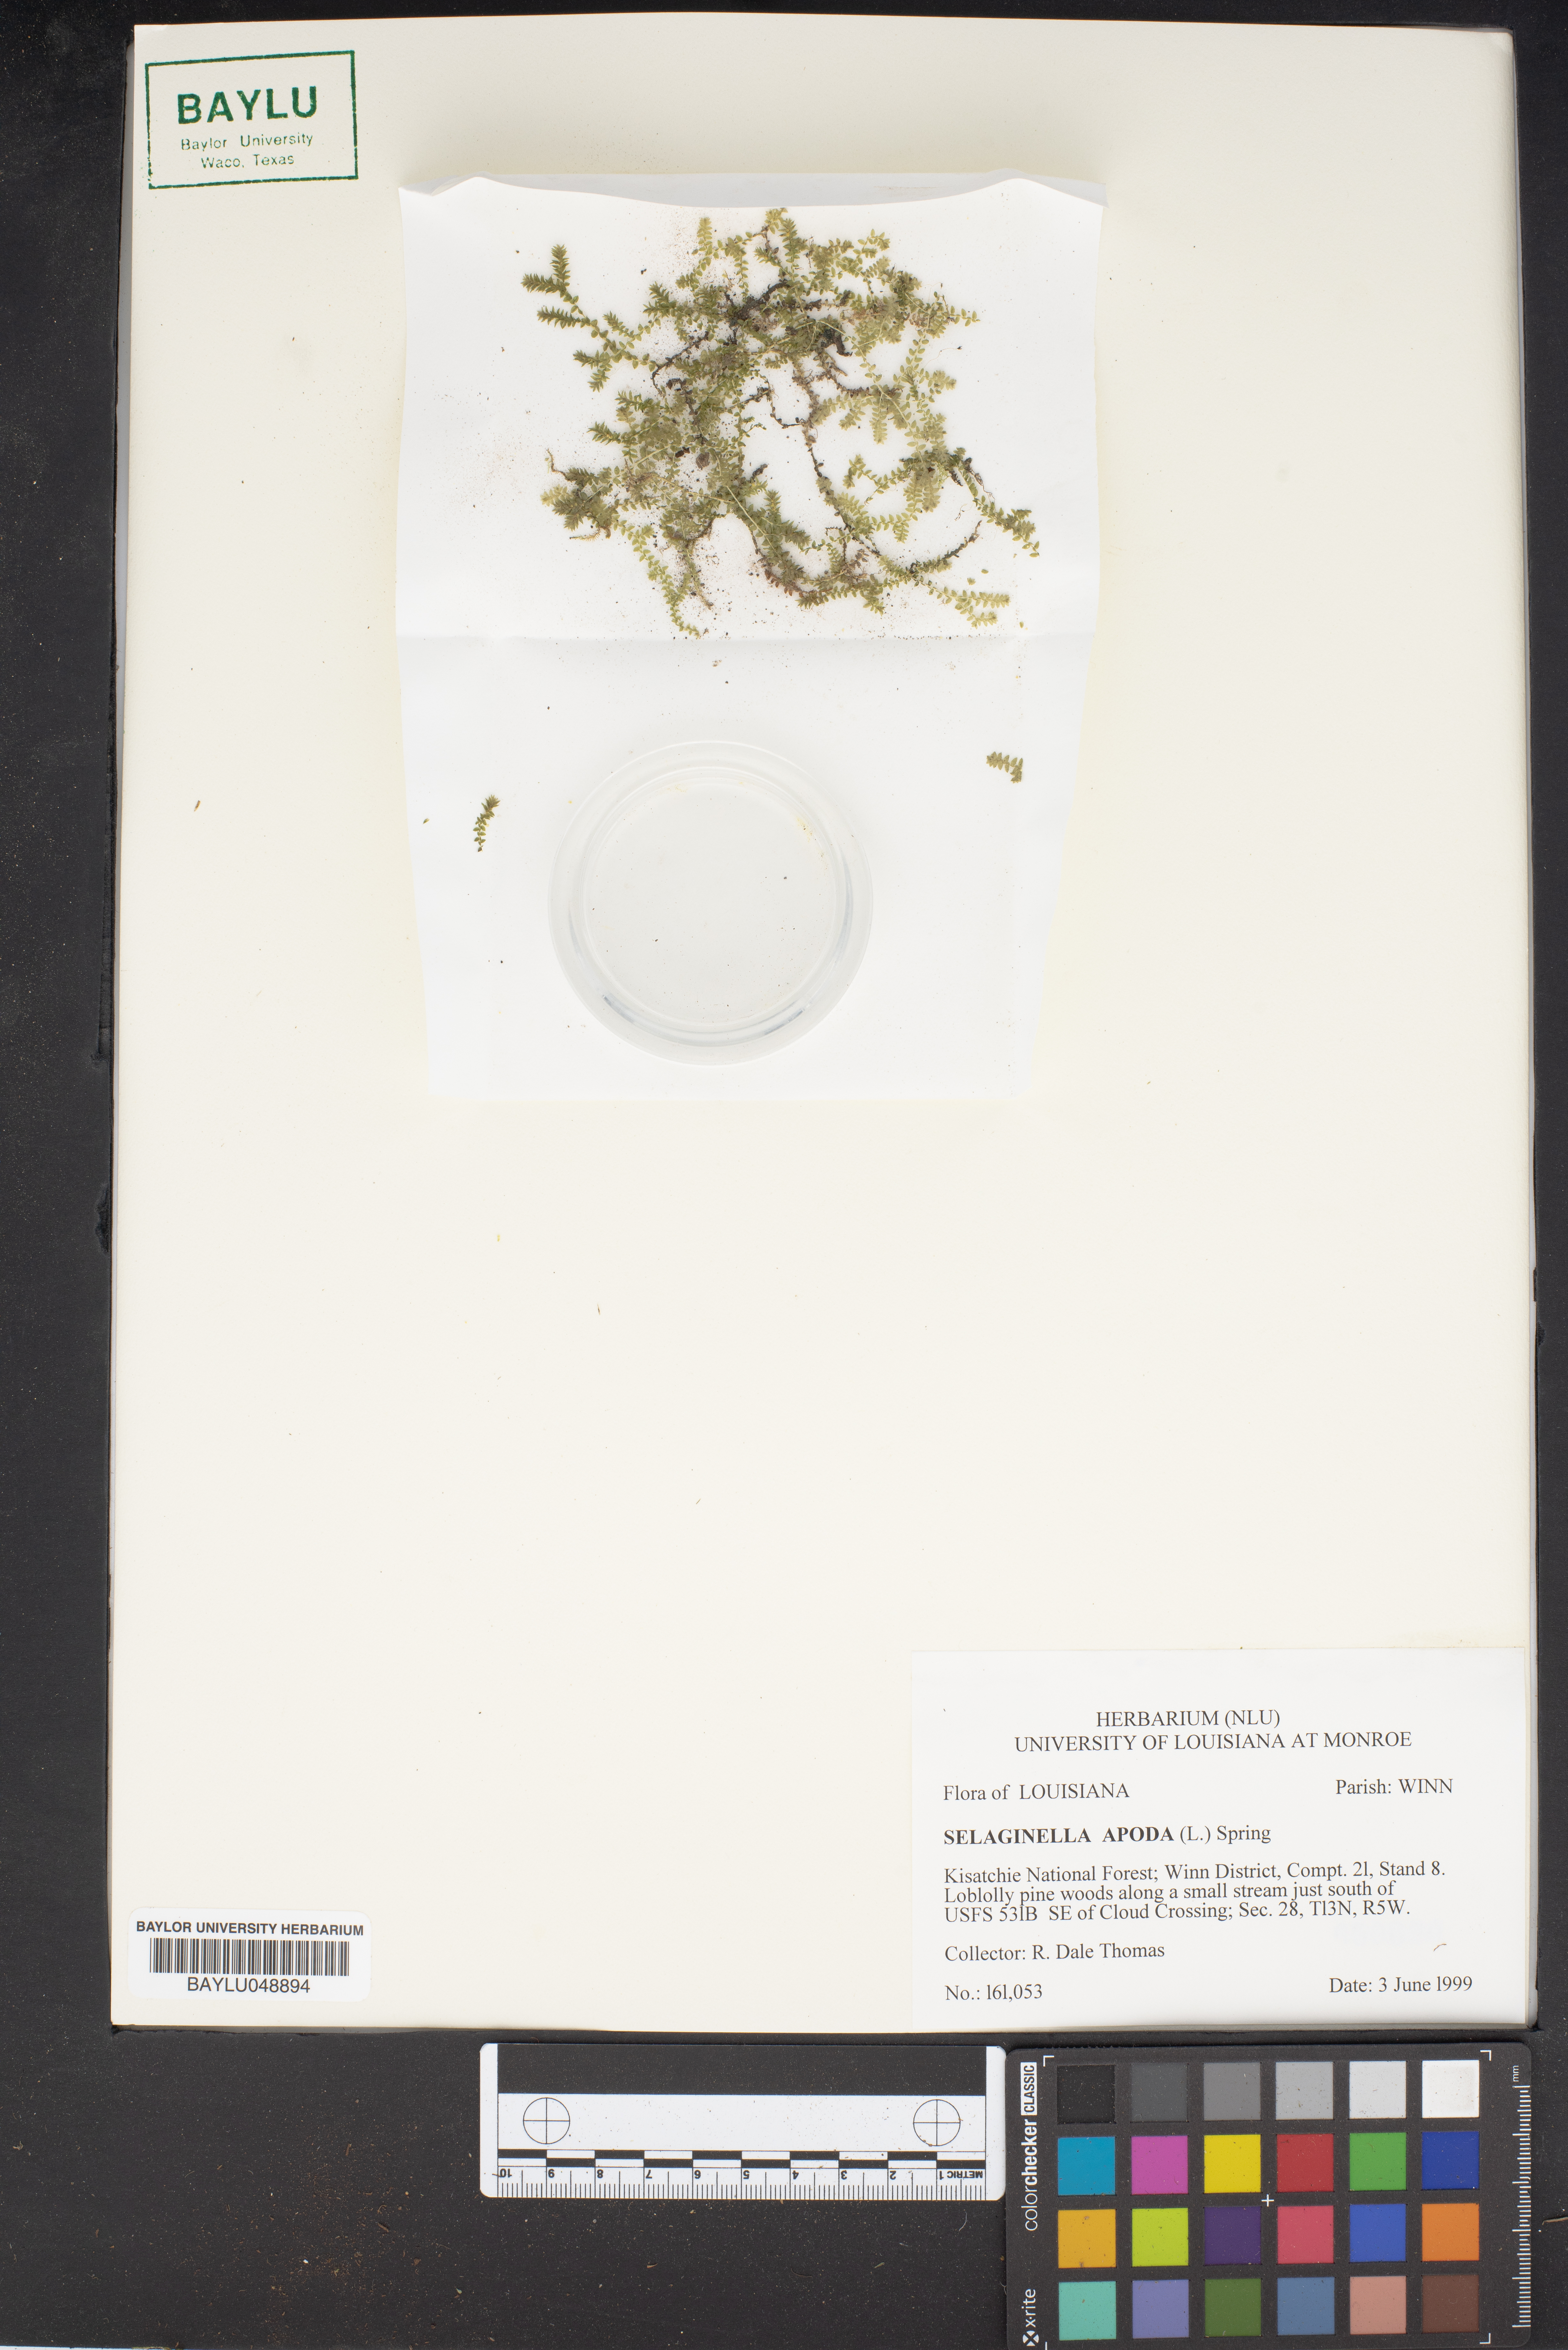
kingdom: Plantae
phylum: Tracheophyta
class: Lycopodiopsida
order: Selaginellales
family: Selaginellaceae
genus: Selaginella
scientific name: Selaginella apoda
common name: Creeping spikemoss
